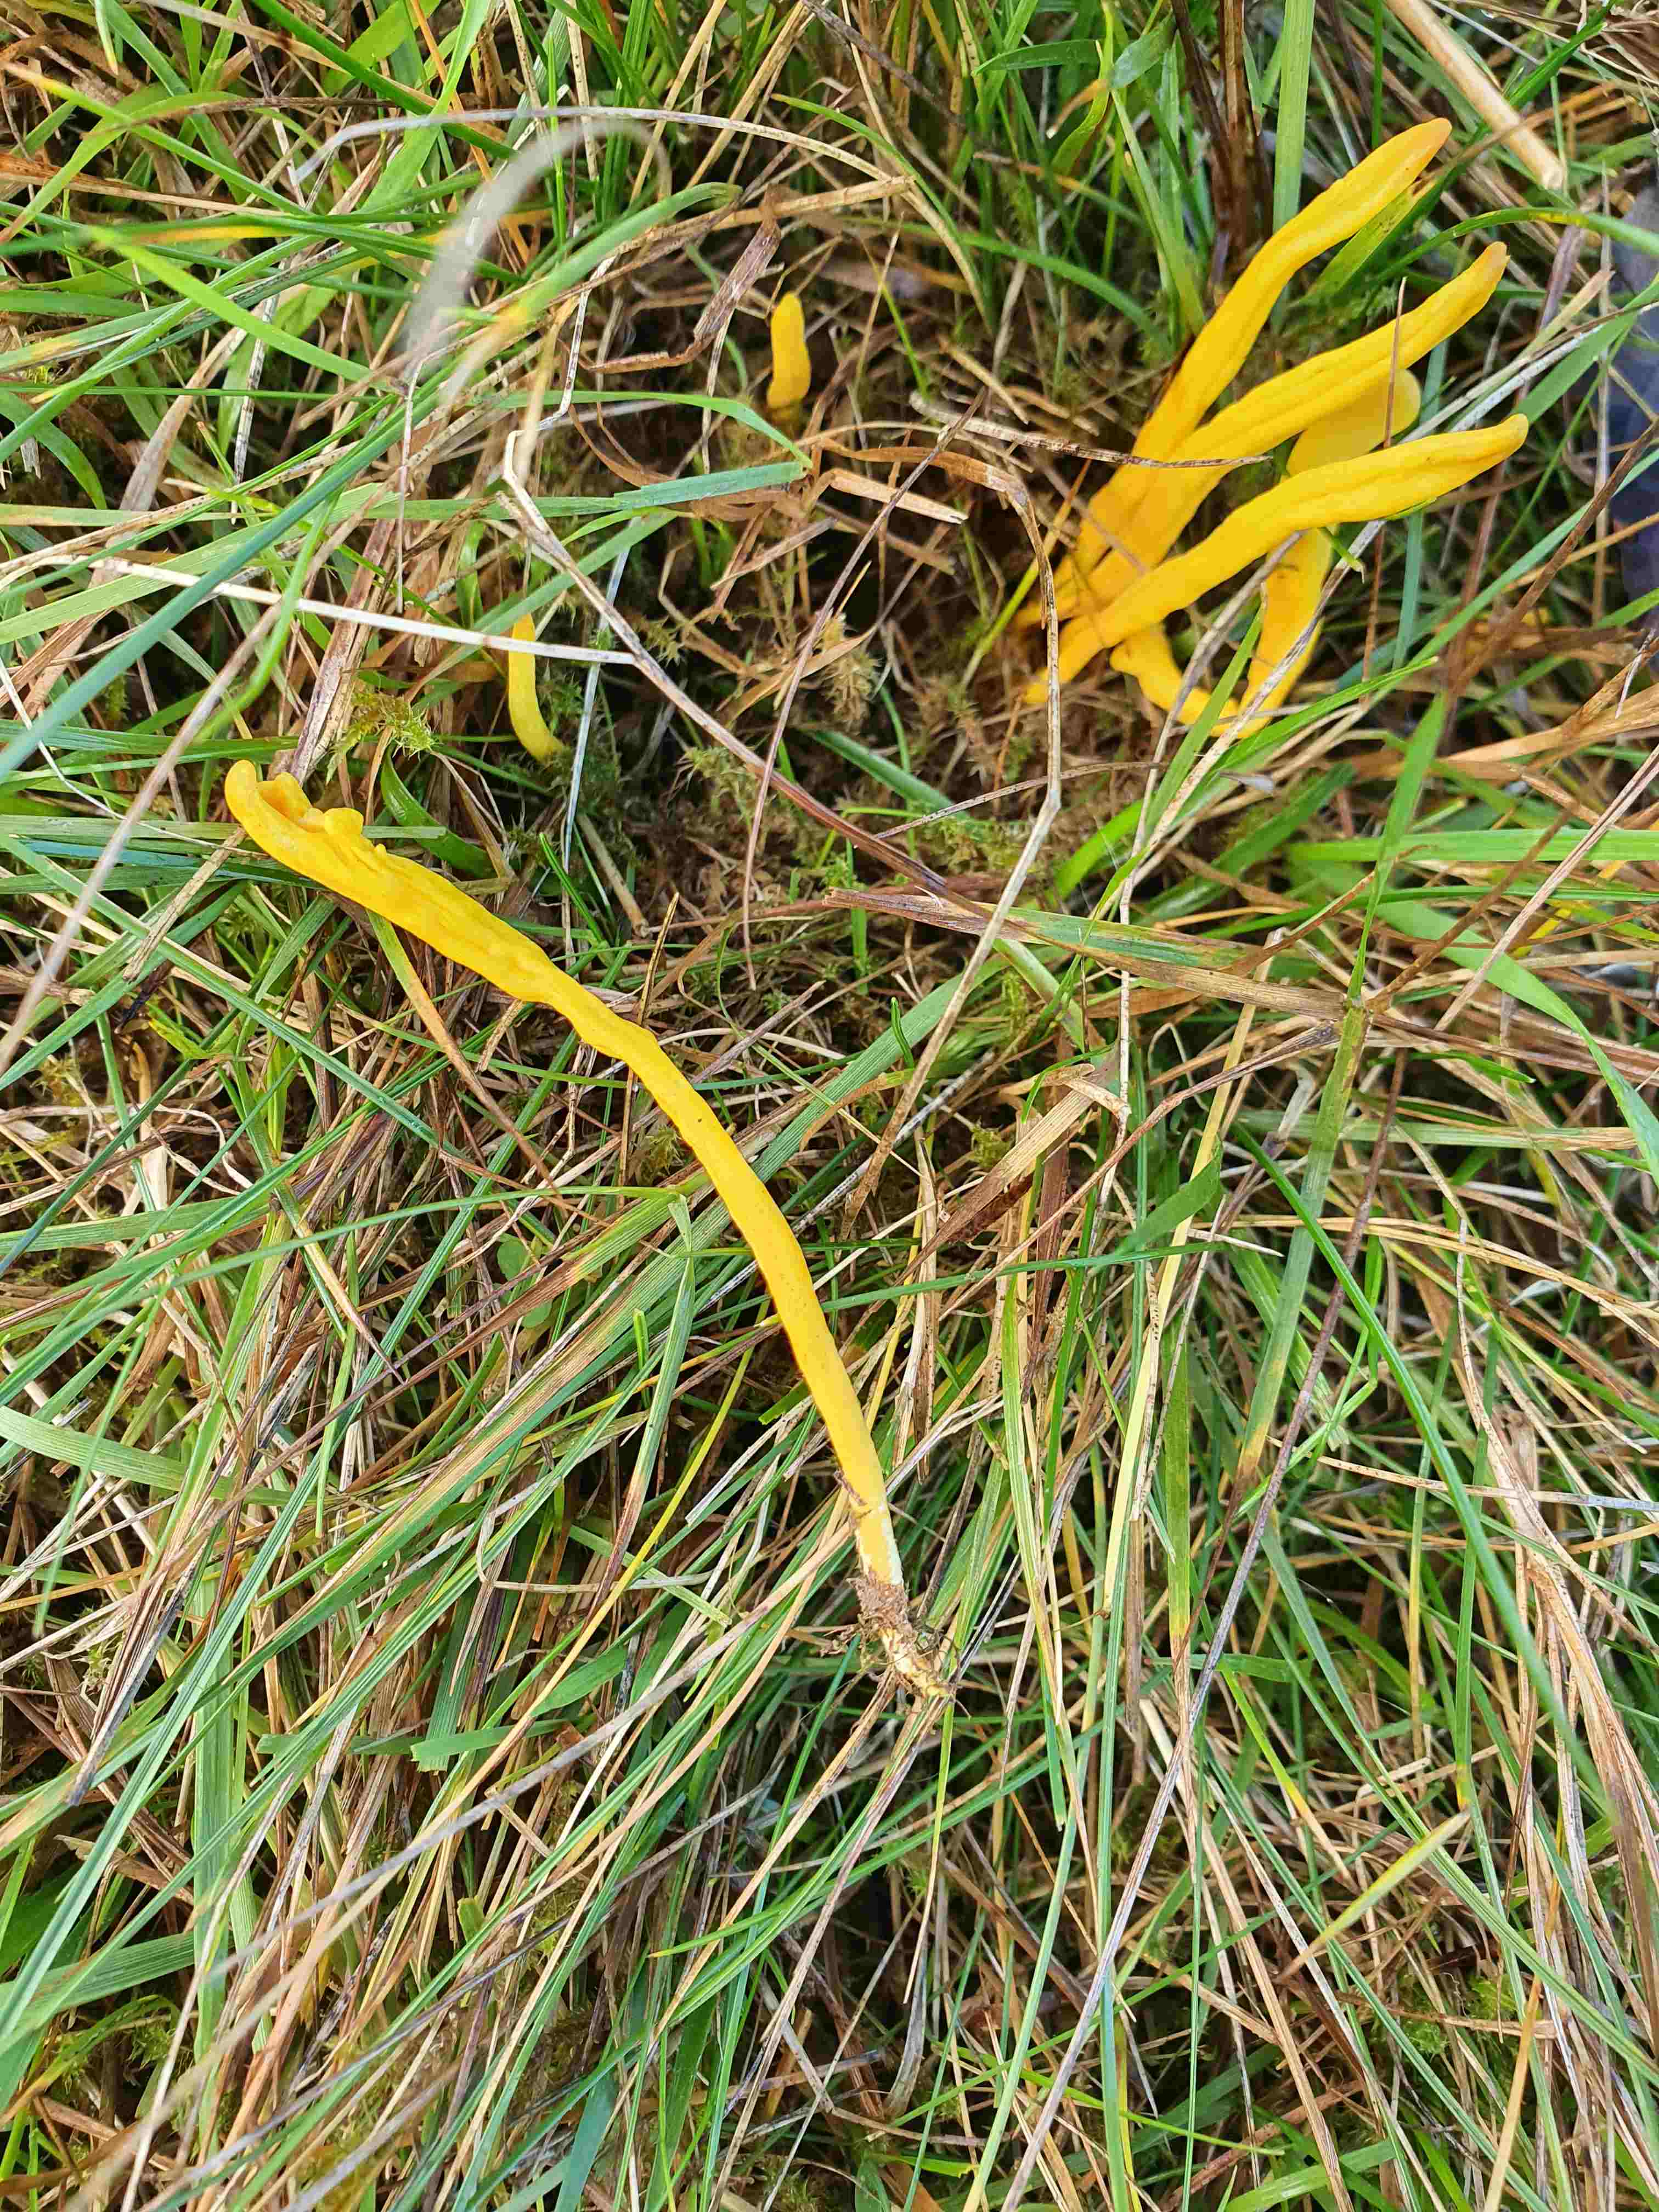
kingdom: Fungi
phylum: Basidiomycota
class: Agaricomycetes
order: Agaricales
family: Clavariaceae
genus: Clavulinopsis
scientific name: Clavulinopsis
